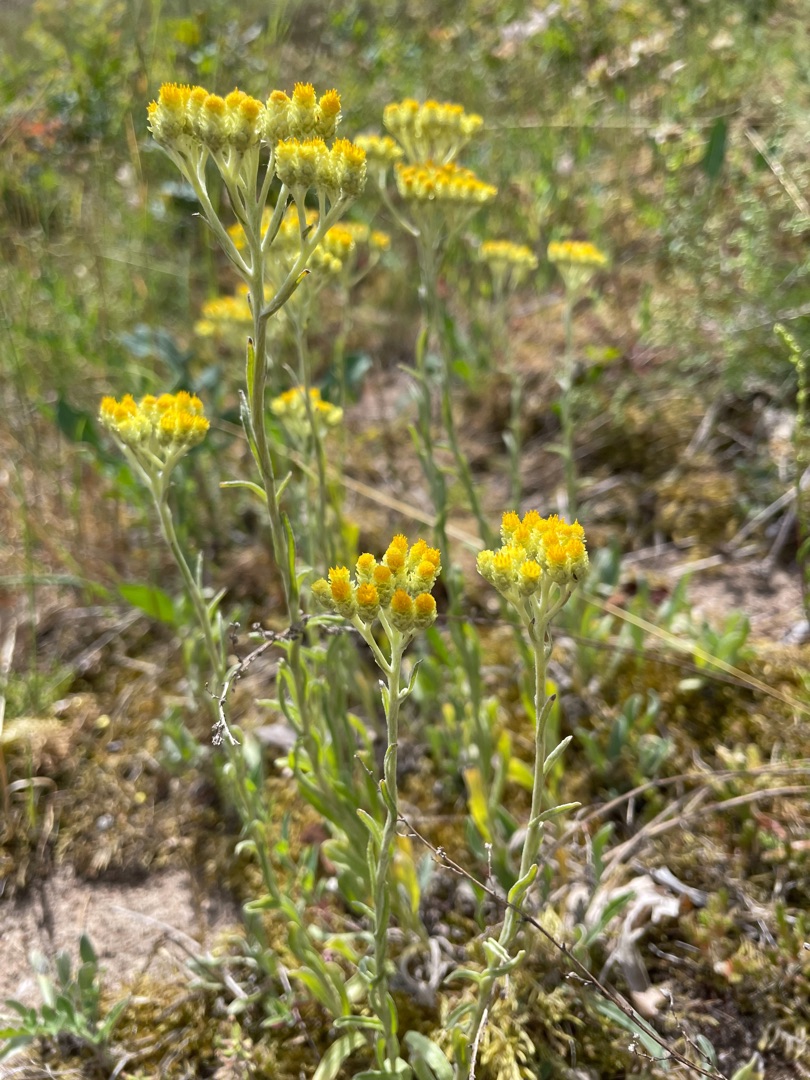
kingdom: Plantae
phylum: Tracheophyta
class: Magnoliopsida
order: Asterales
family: Asteraceae
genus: Helichrysum
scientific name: Helichrysum arenarium
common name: Gul evighedsblomst
